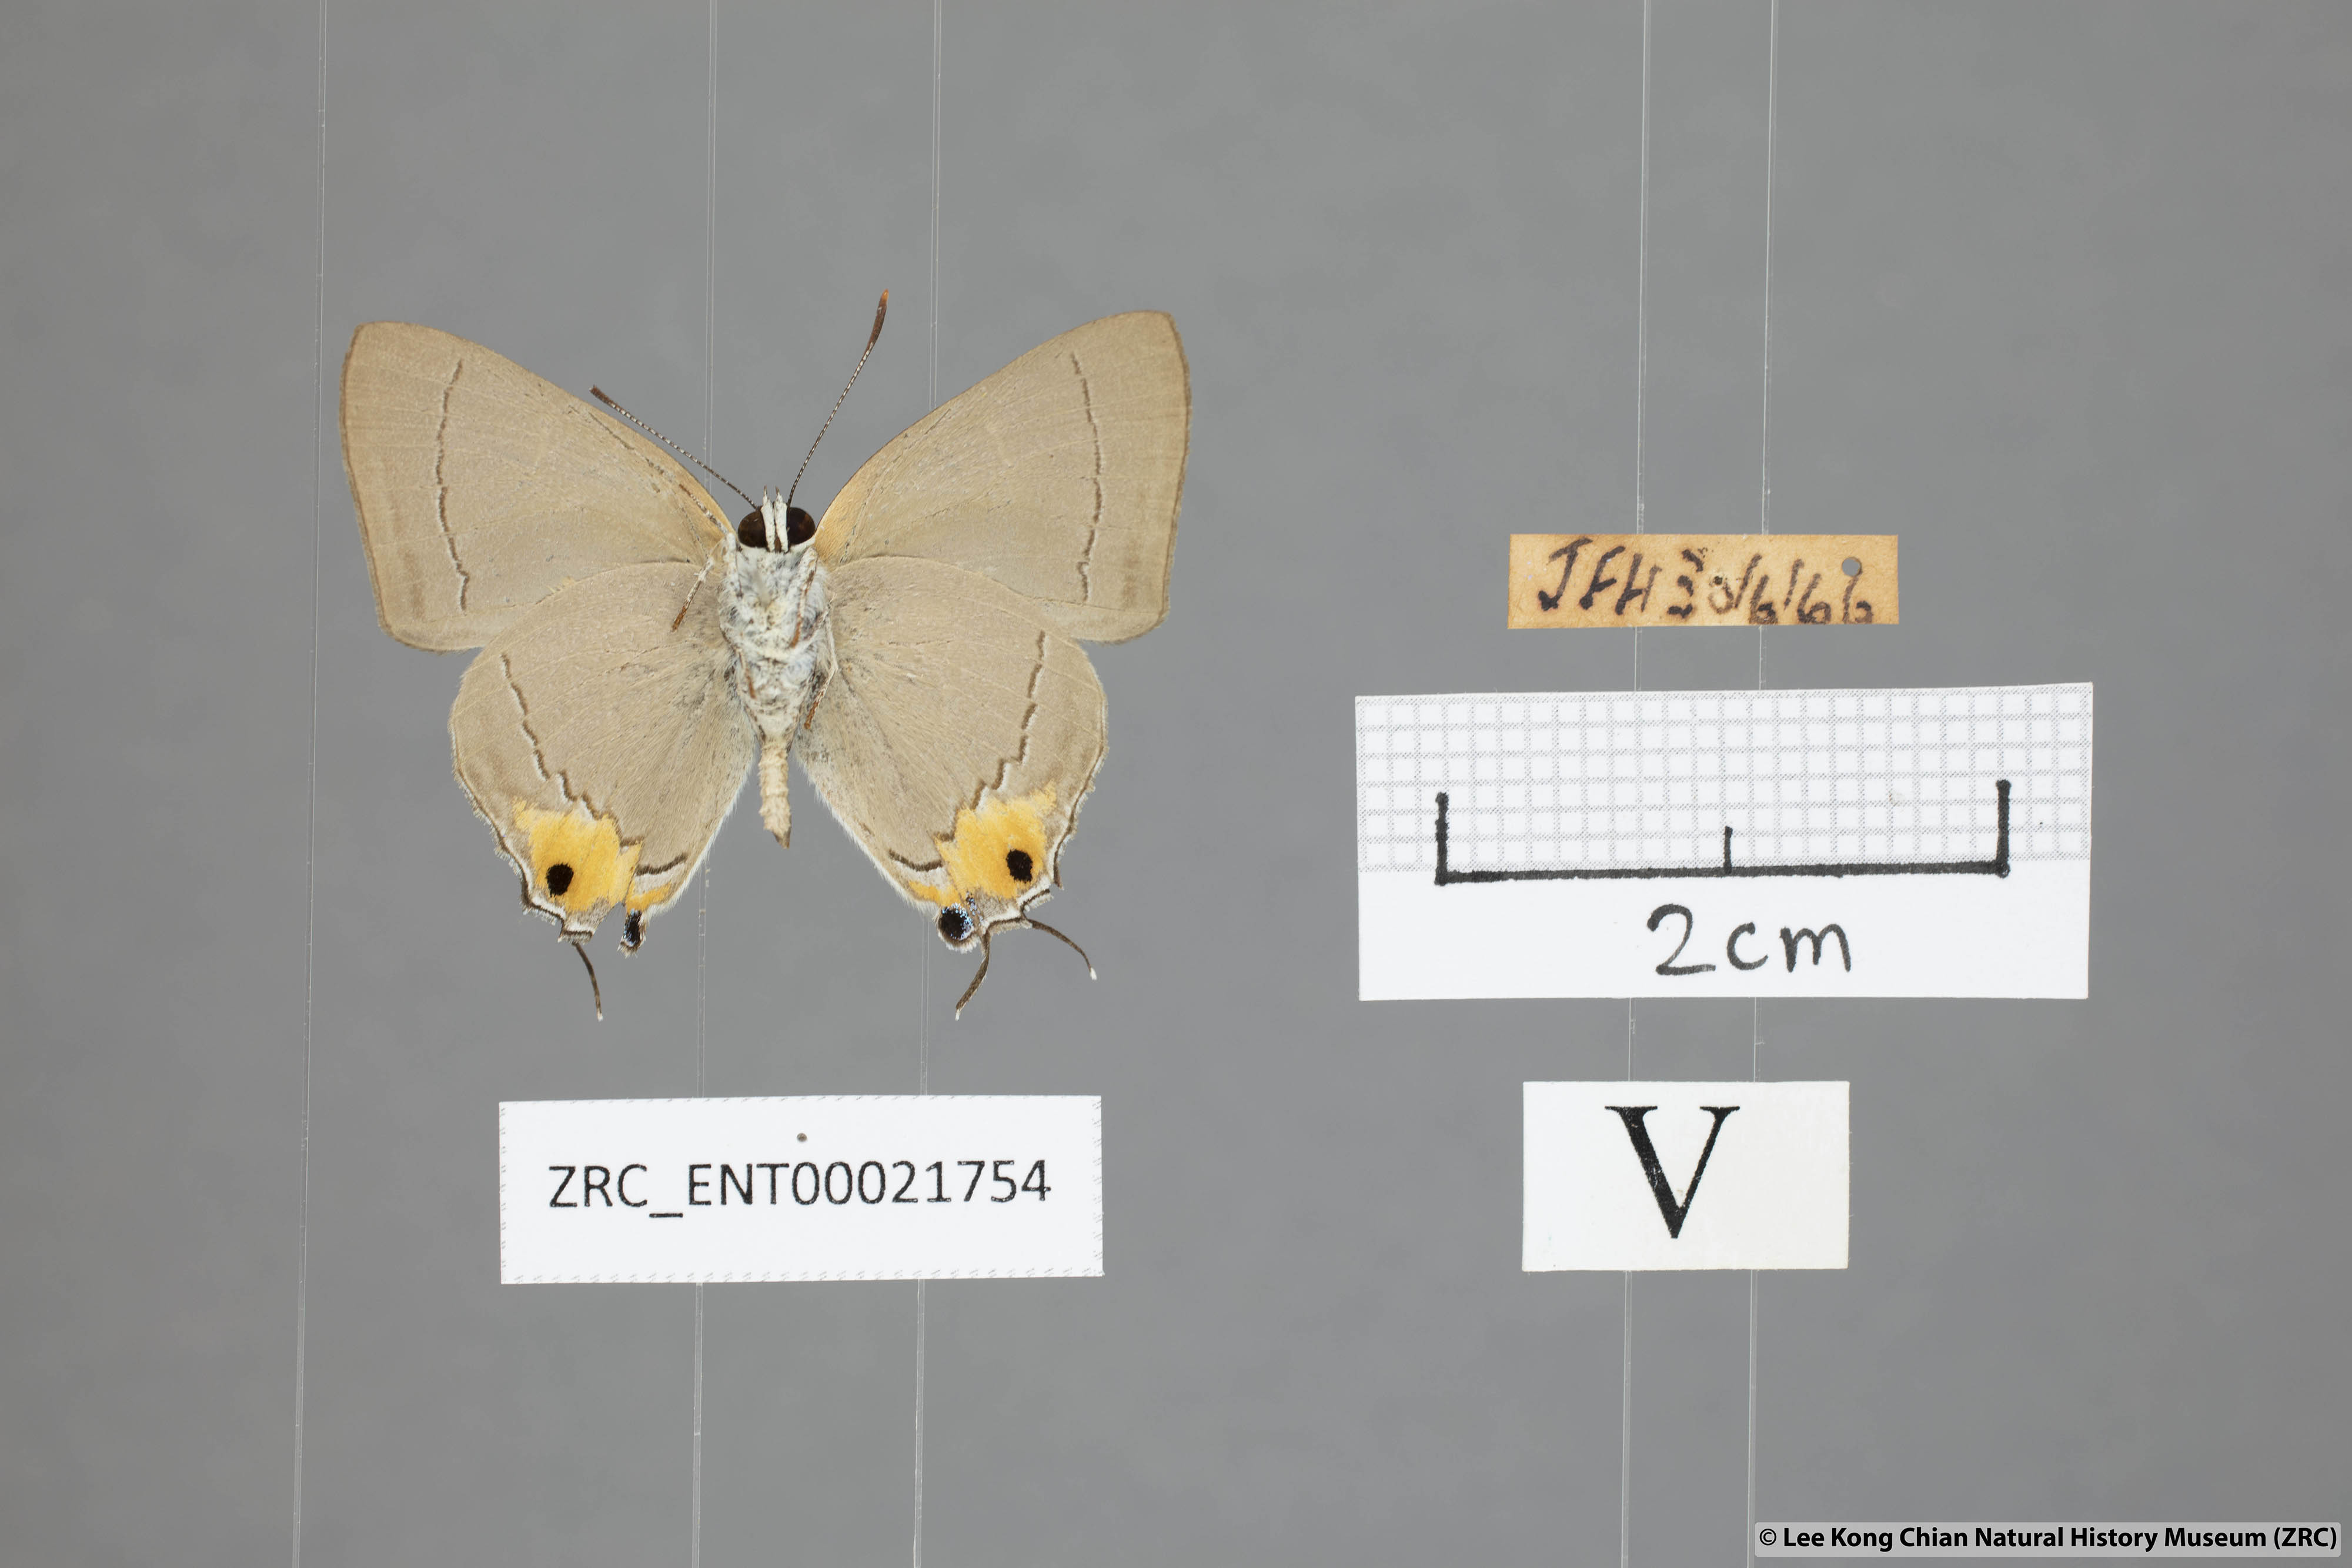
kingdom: Animalia
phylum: Arthropoda
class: Insecta
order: Lepidoptera
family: Lycaenidae
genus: Pratapa
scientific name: Pratapa
